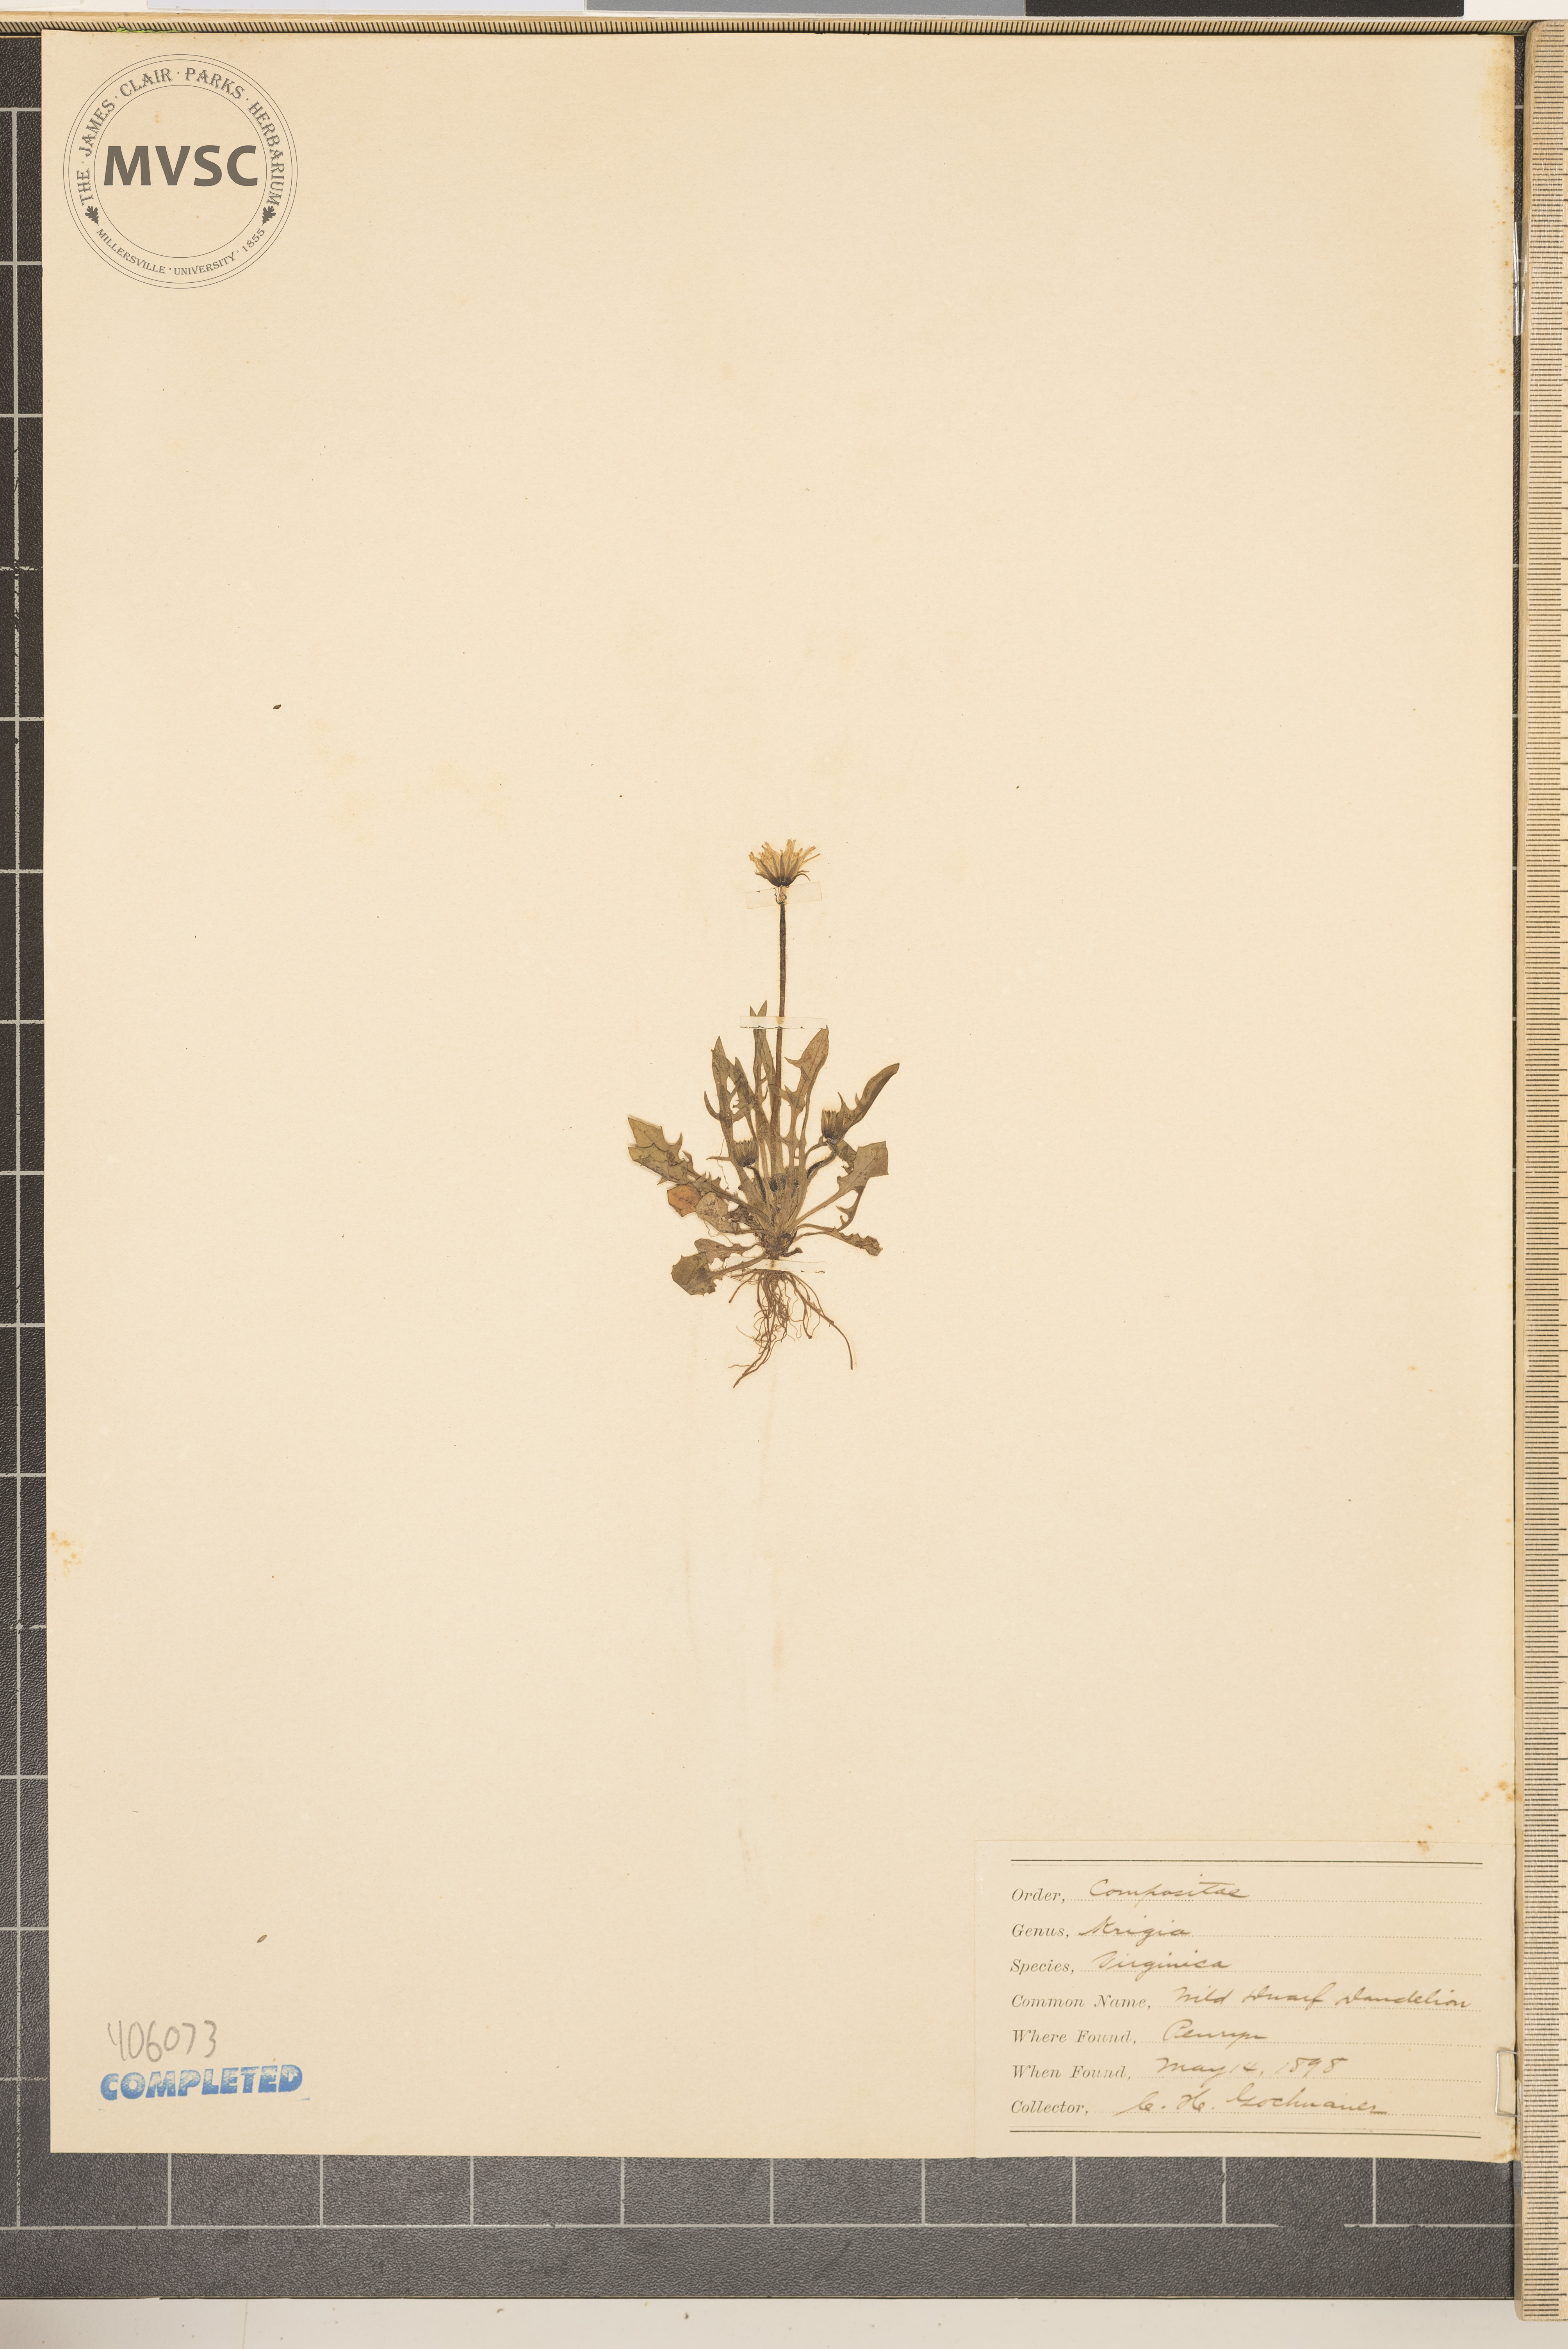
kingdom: Plantae
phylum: Tracheophyta
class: Magnoliopsida
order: Asterales
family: Asteraceae
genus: Krigia
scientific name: Krigia virginica
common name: Virginia dwarf-dandelion
